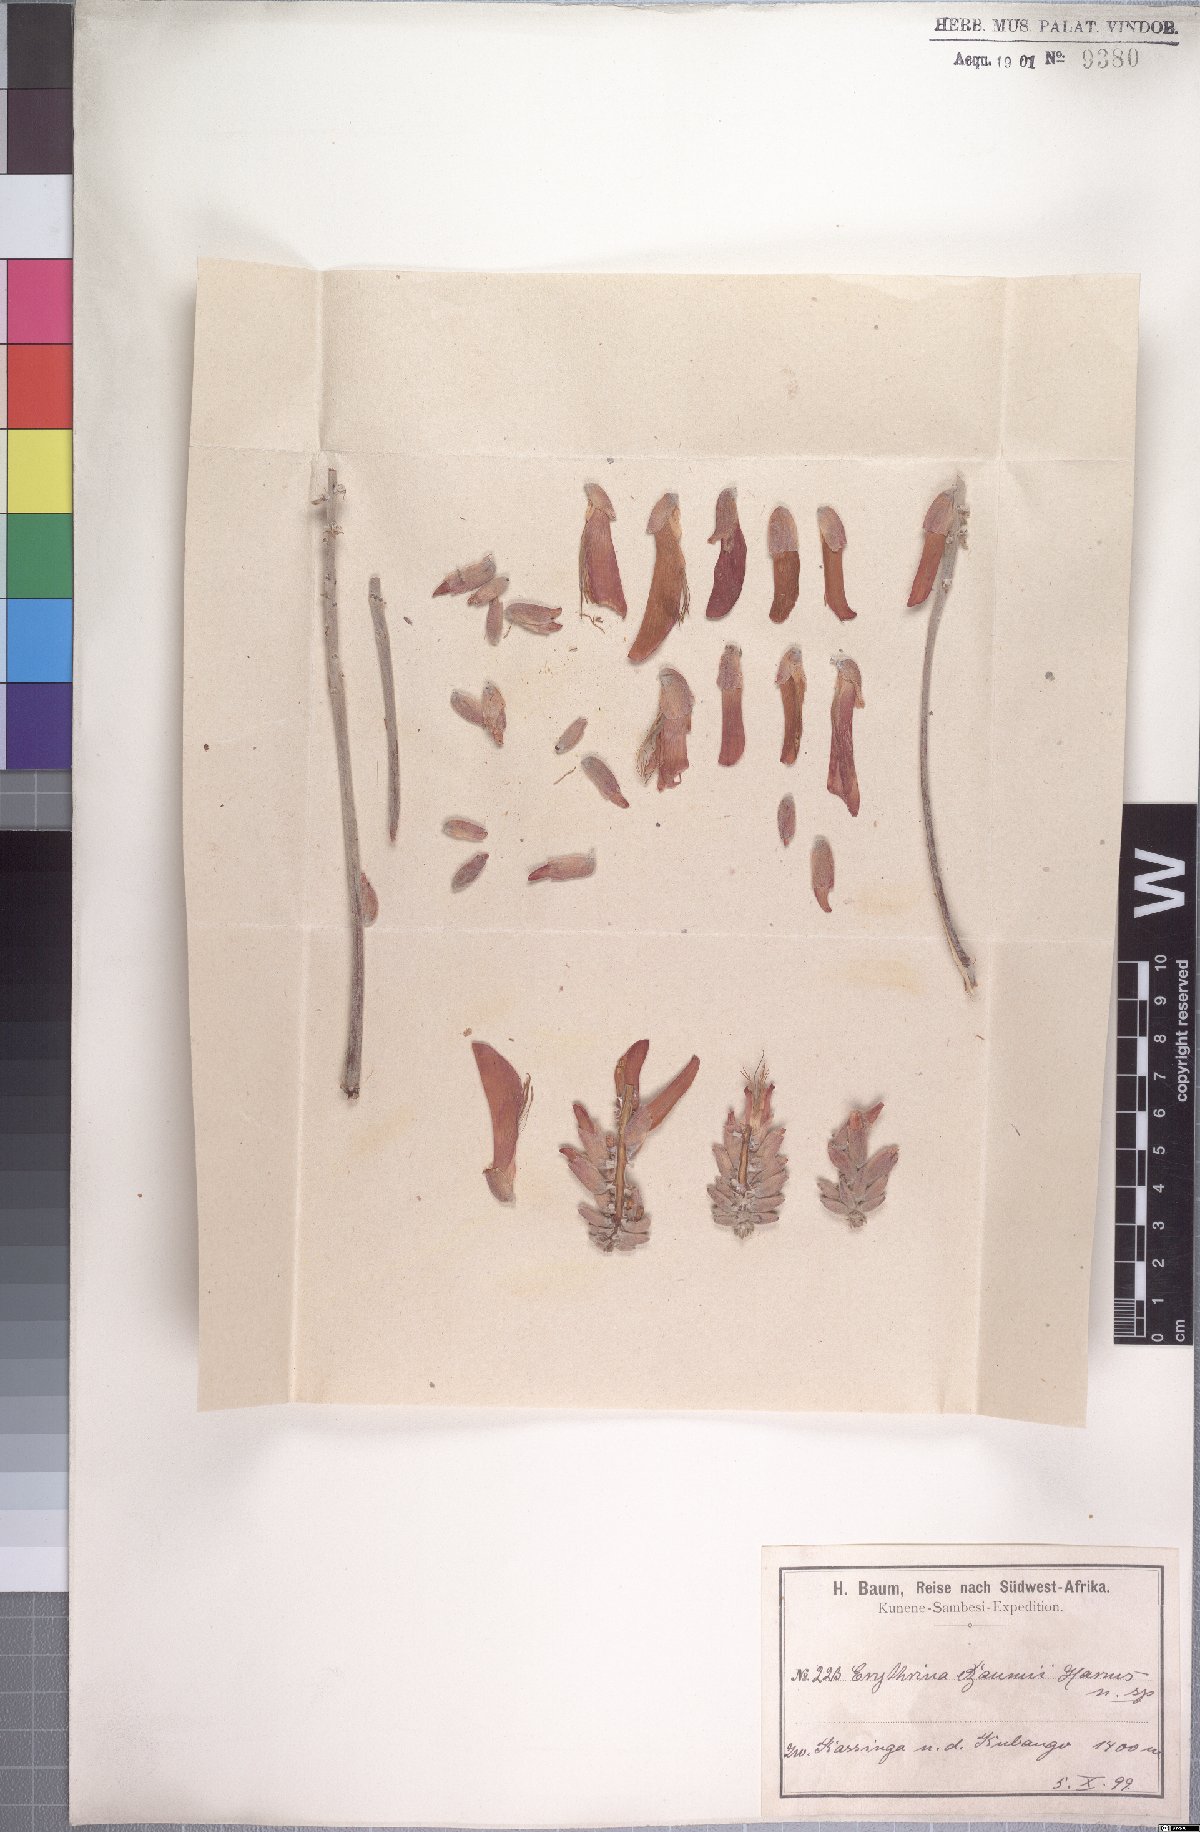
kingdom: Plantae
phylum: Tracheophyta
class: Magnoliopsida
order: Fabales
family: Fabaceae
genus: Erythrina
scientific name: Erythrina baumii
